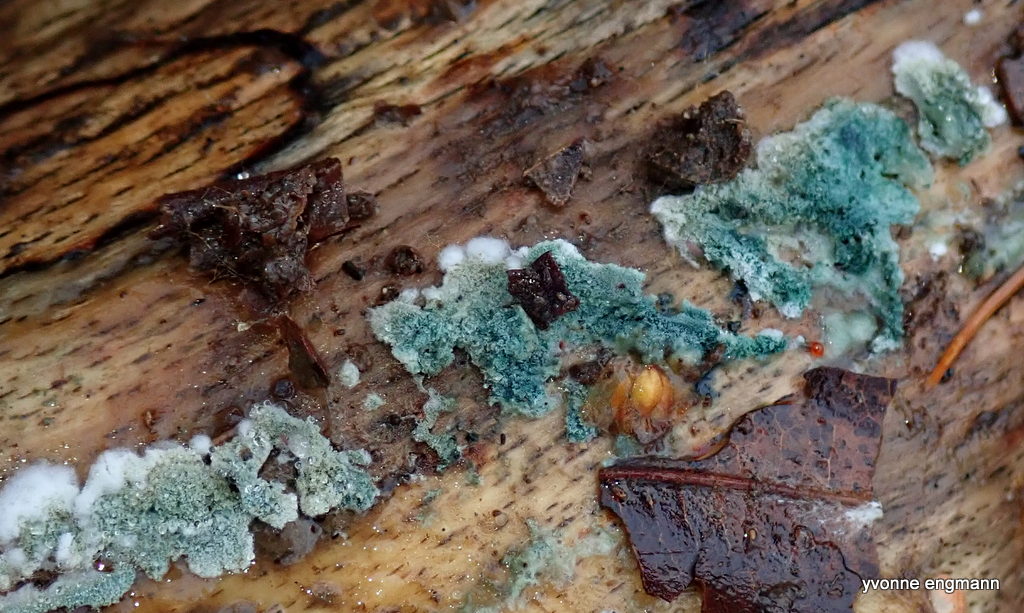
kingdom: Fungi
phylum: Ascomycota
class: Sordariomycetes
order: Hypocreales
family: Hypocreaceae
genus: Trichoderma
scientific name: Trichoderma
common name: kødkerne
